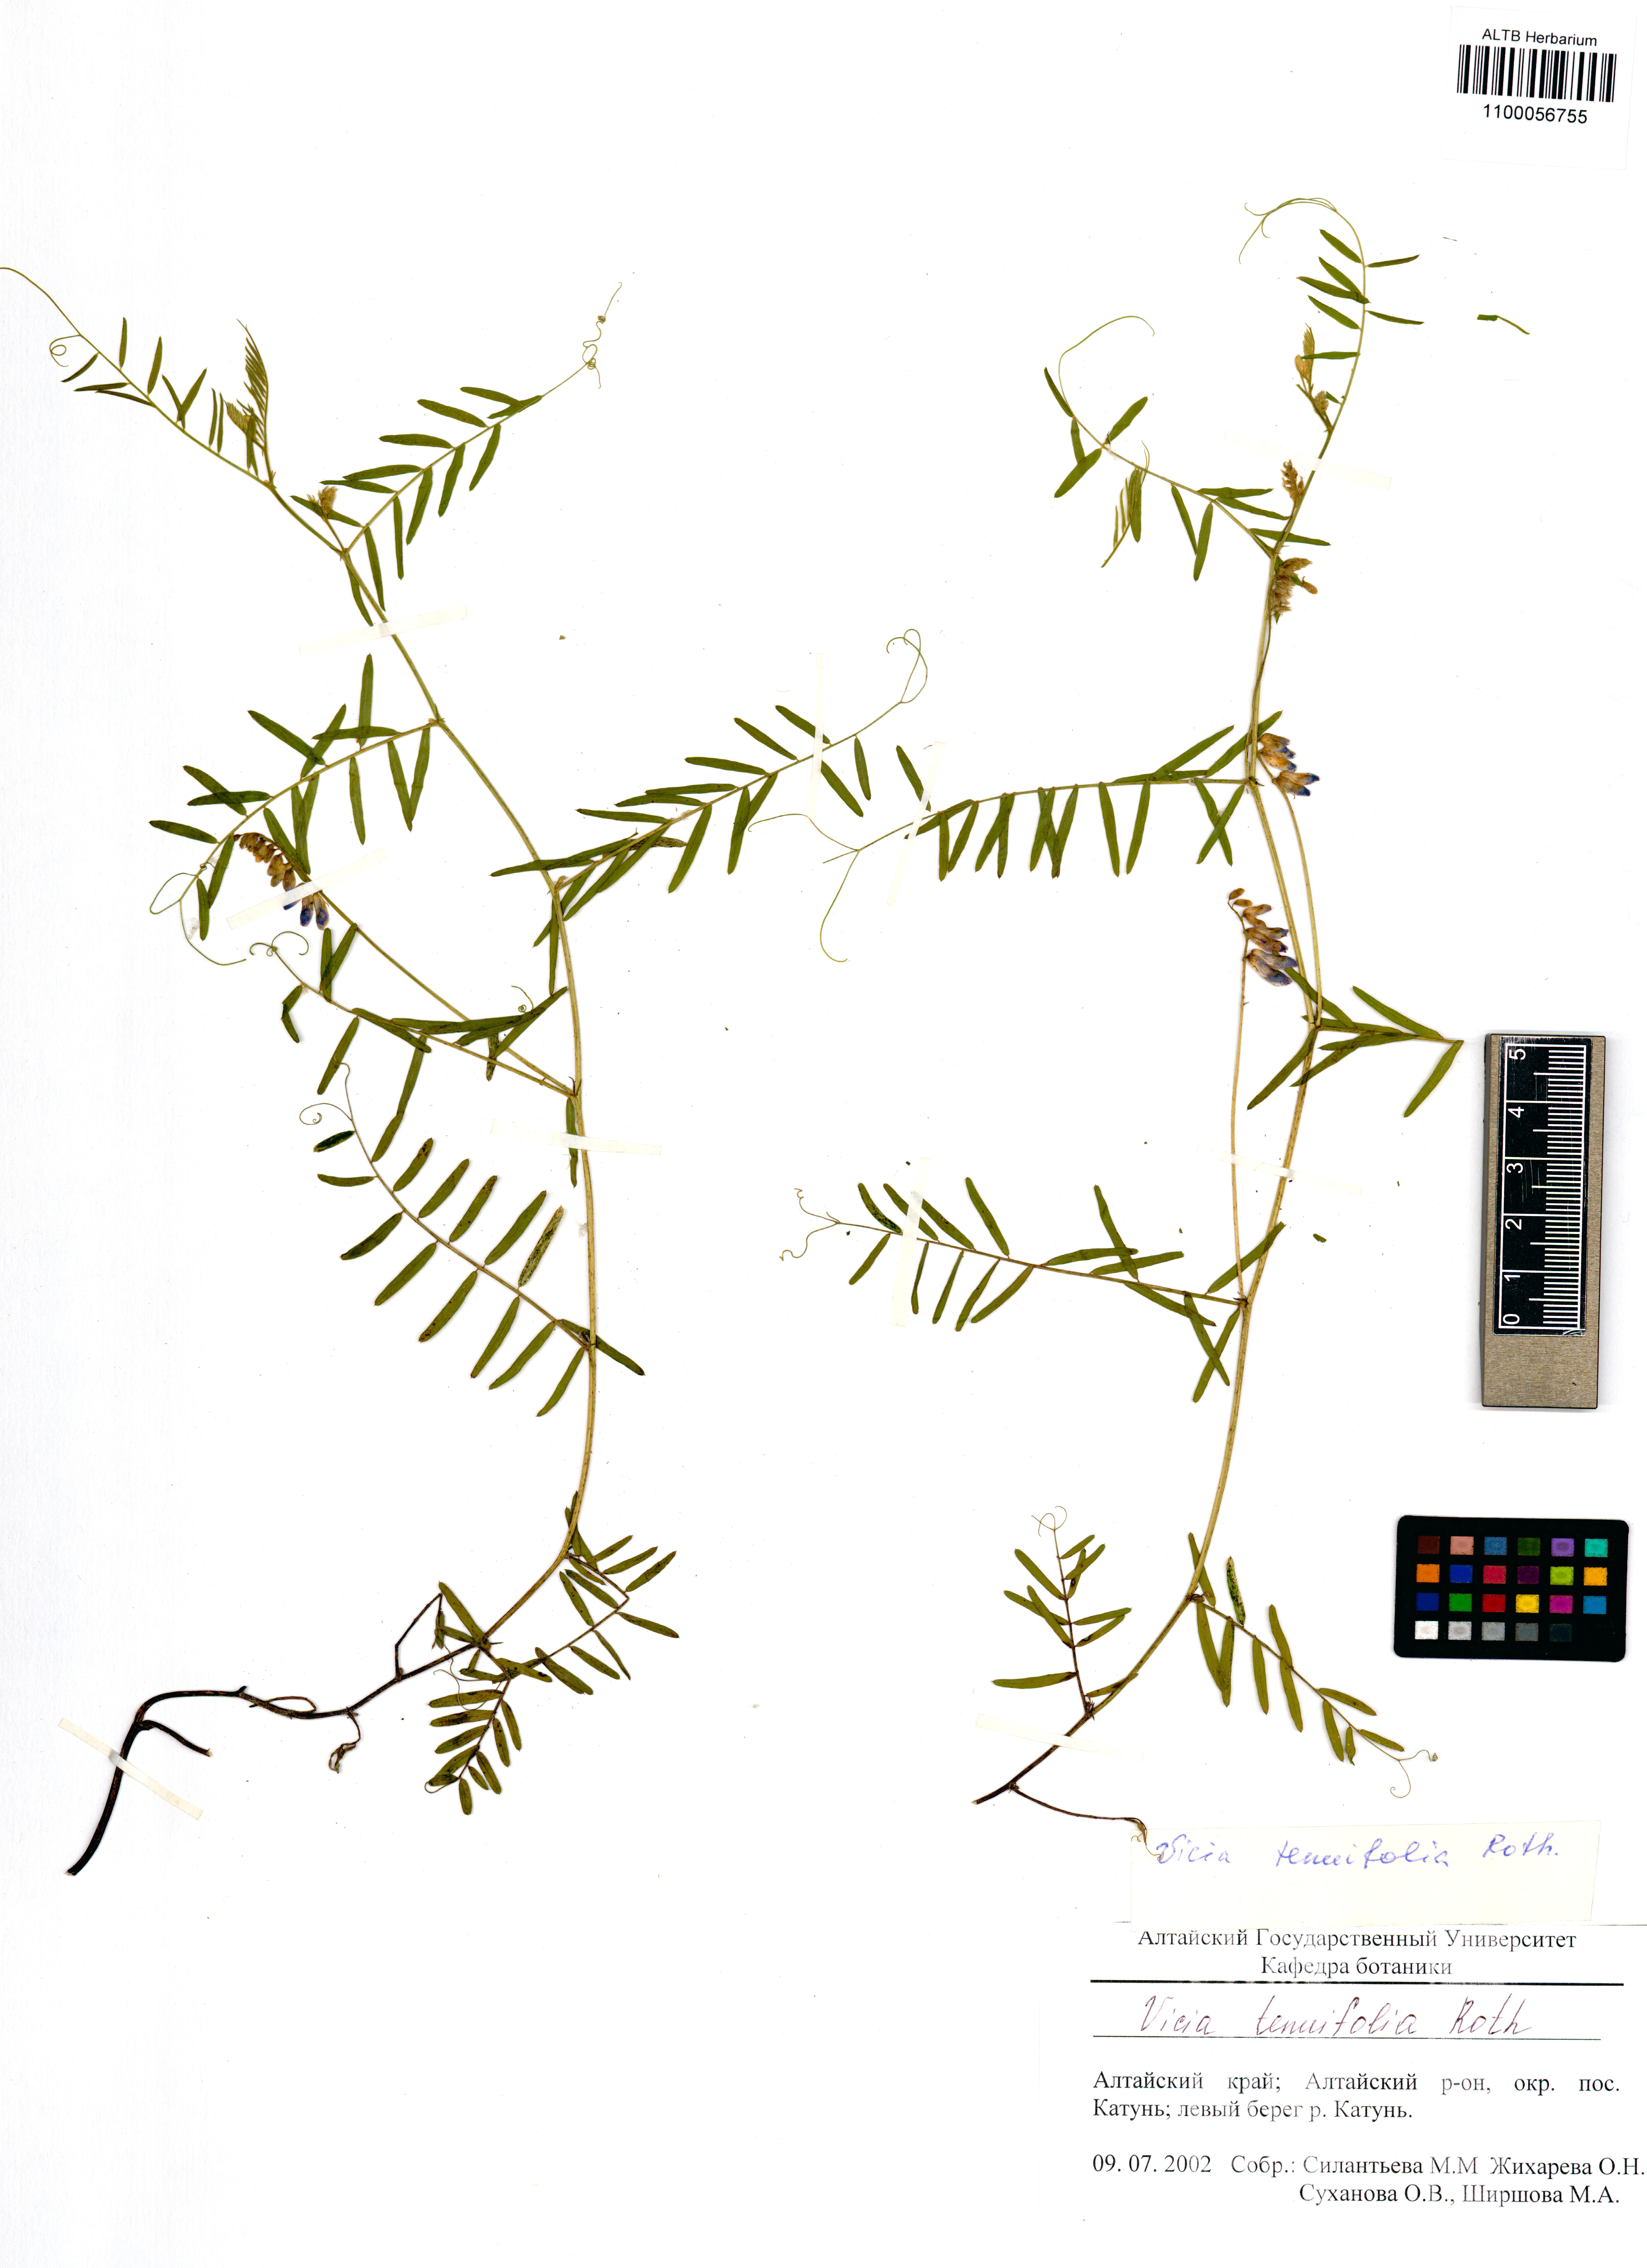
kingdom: Plantae
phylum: Tracheophyta
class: Magnoliopsida
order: Fabales
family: Fabaceae
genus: Vicia
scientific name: Vicia tenuifolia
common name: Fine-leaved vetch
